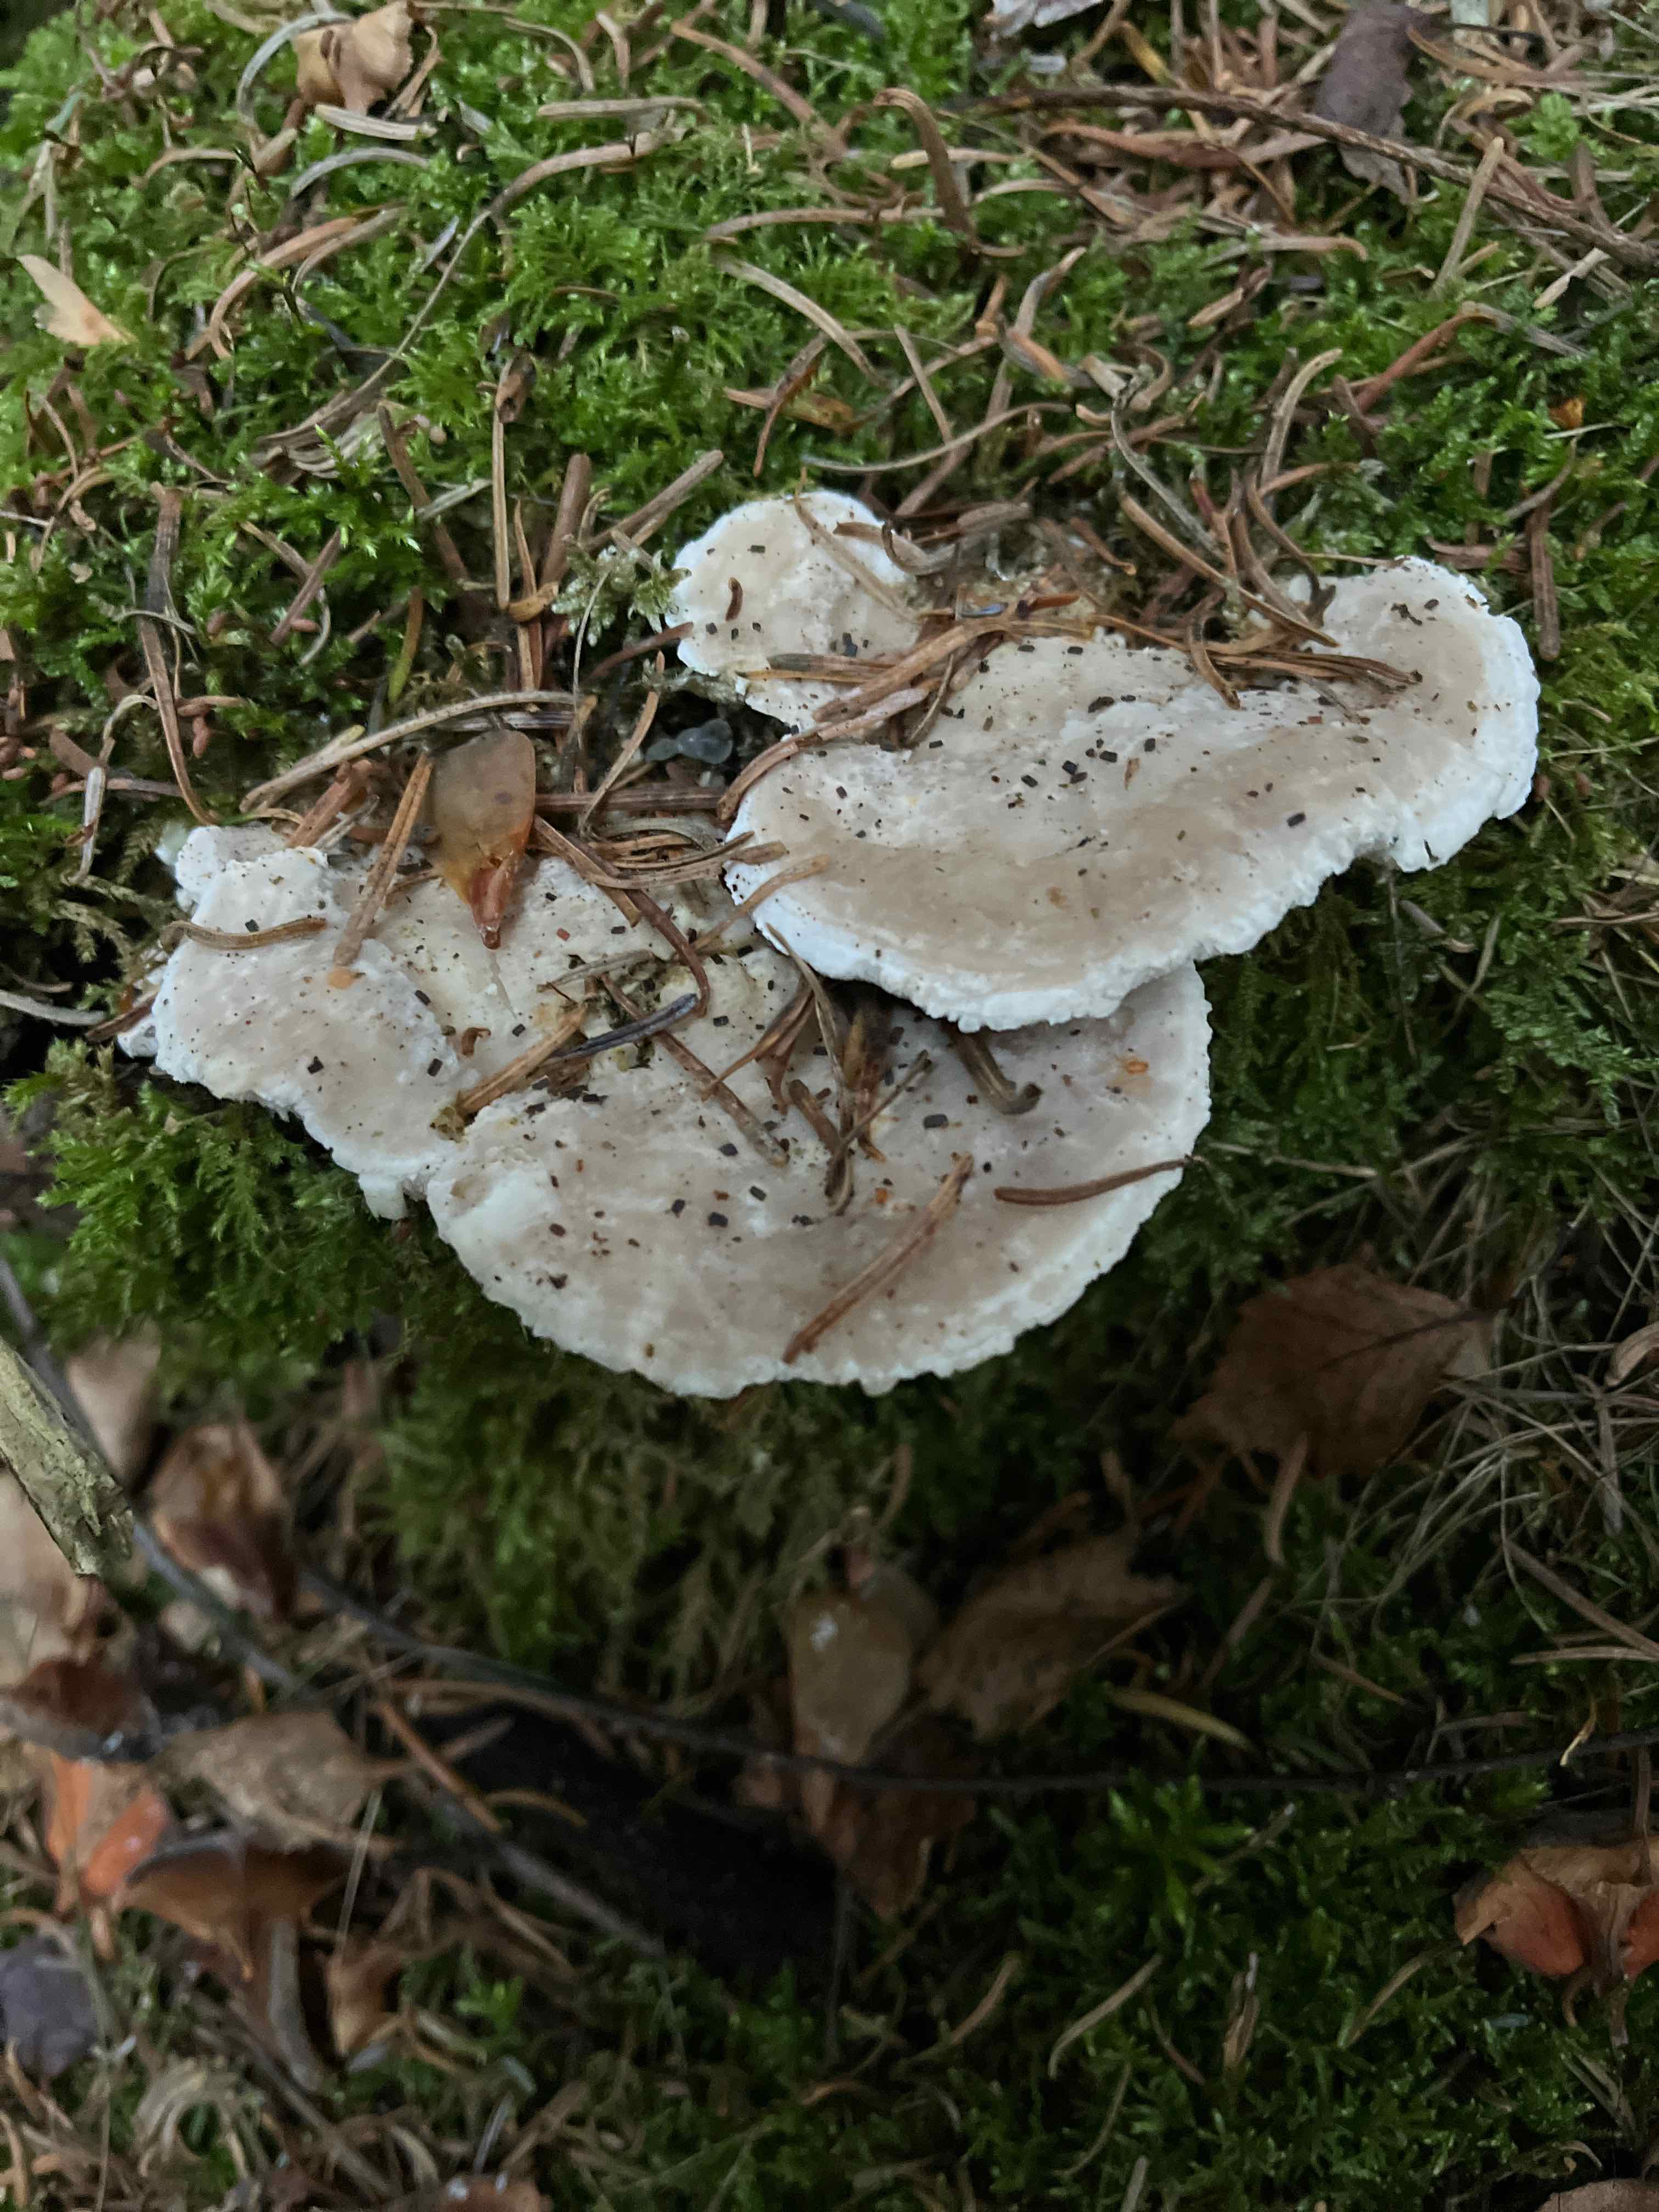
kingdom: Fungi
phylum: Basidiomycota
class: Agaricomycetes
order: Polyporales
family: Dacryobolaceae
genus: Postia
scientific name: Postia
